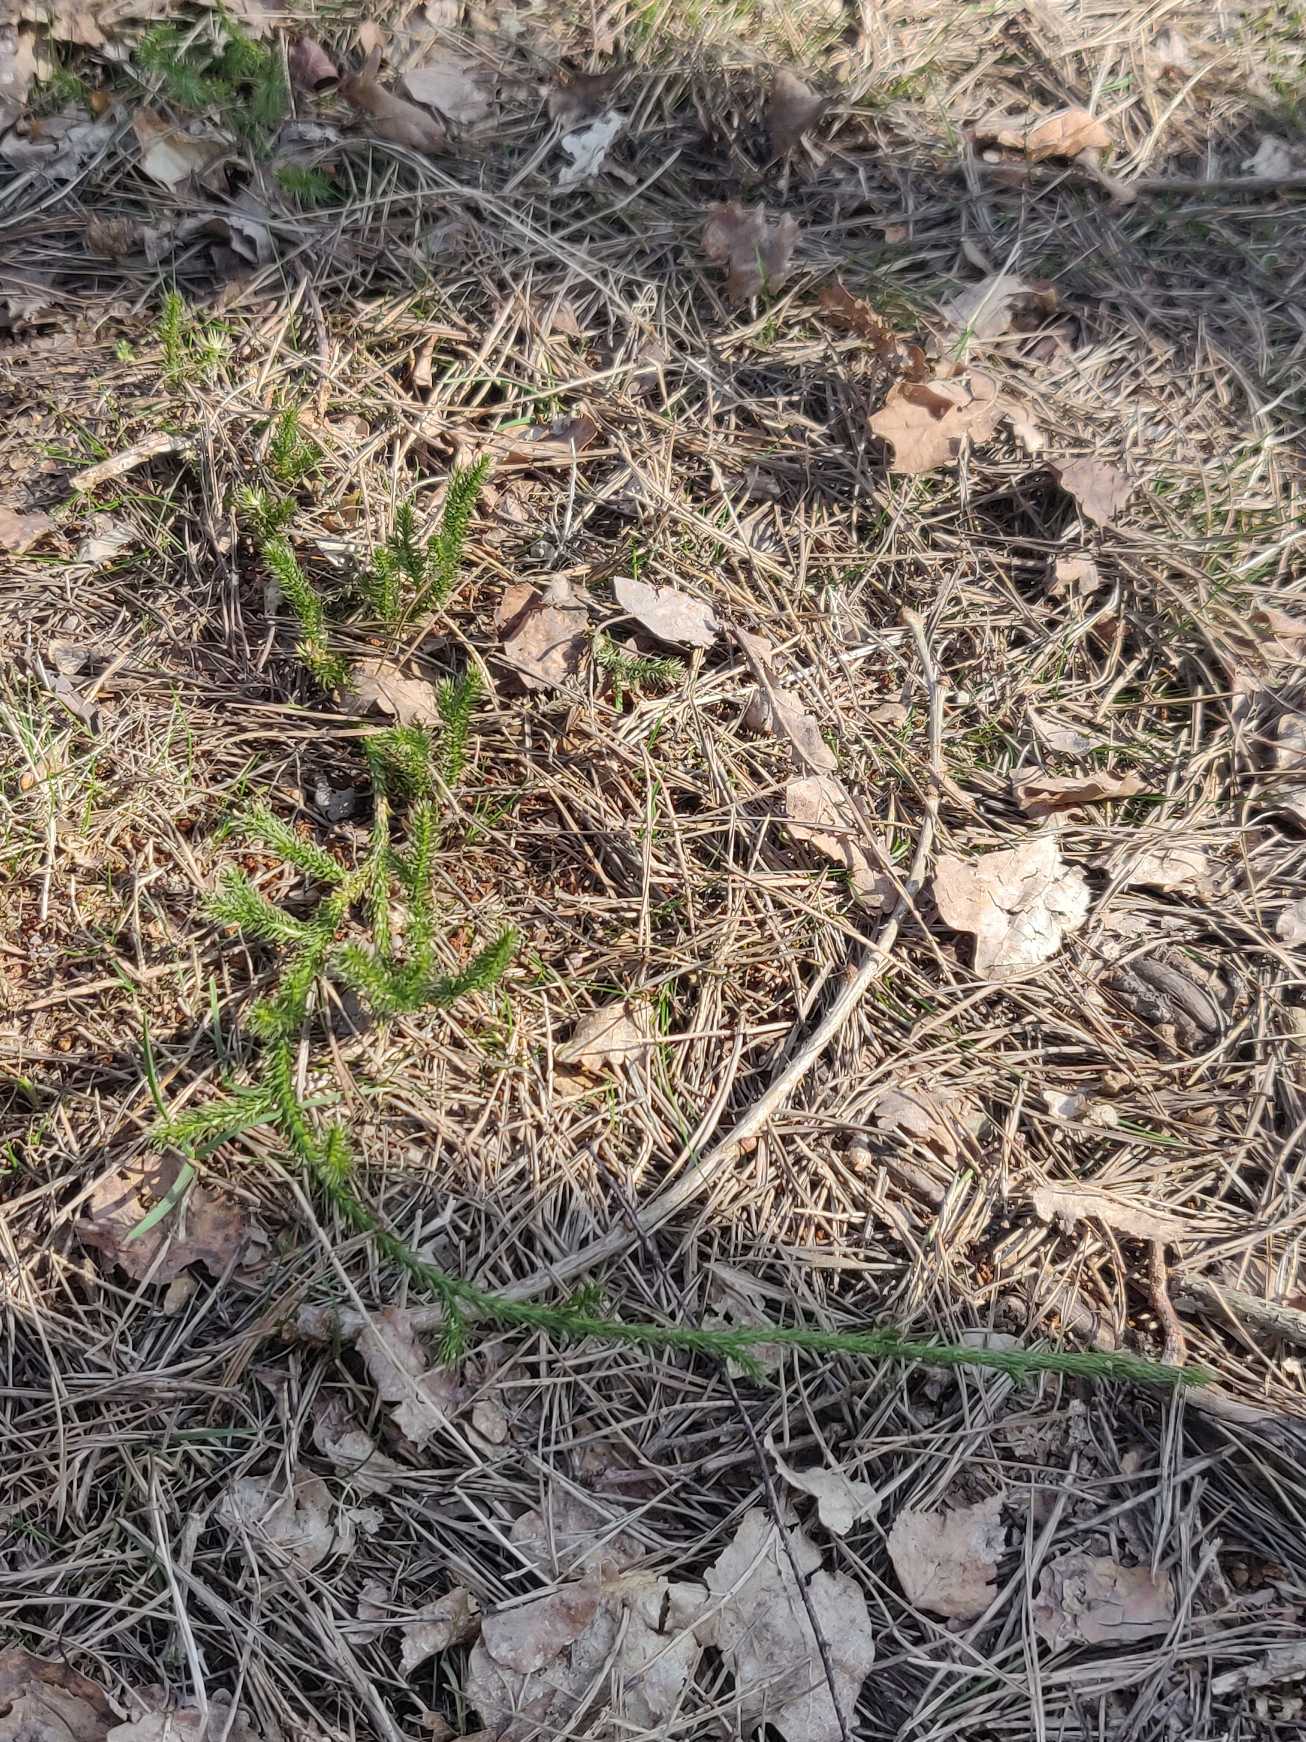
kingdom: Plantae
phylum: Tracheophyta
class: Lycopodiopsida
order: Lycopodiales
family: Lycopodiaceae
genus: Lycopodium
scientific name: Lycopodium clavatum
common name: Almindelig ulvefod
